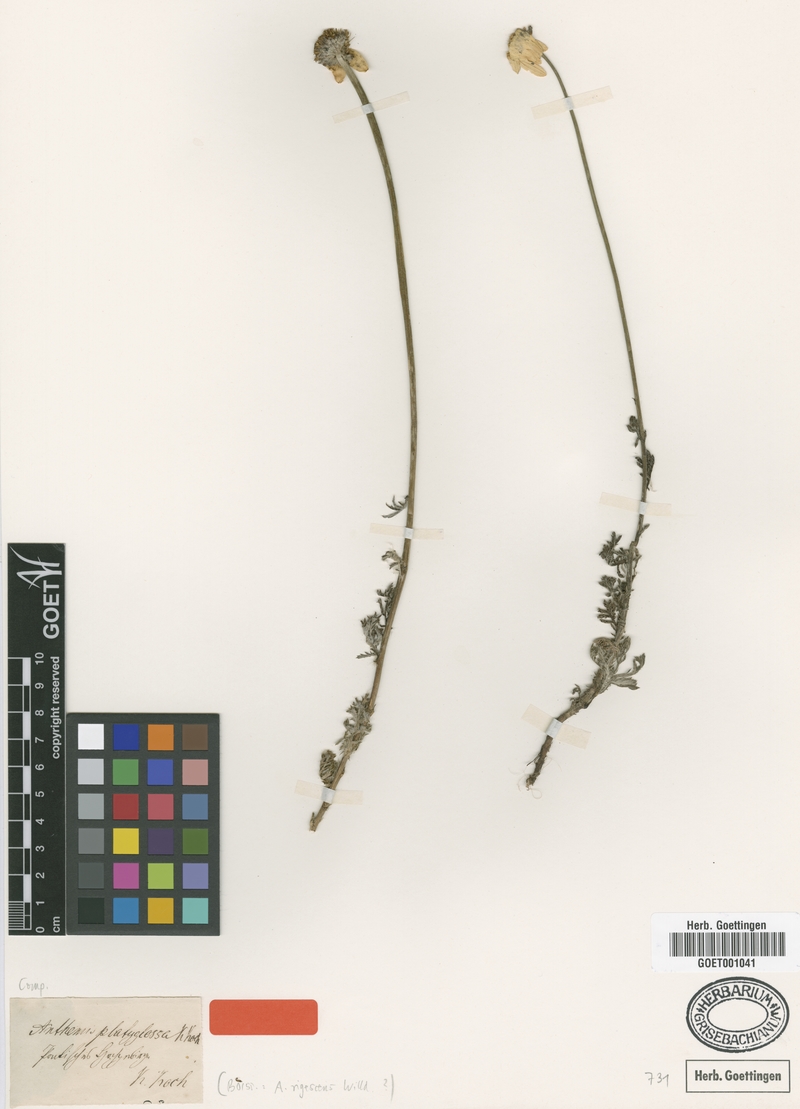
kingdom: Plantae
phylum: Tracheophyta
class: Magnoliopsida
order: Asterales
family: Asteraceae
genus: Cota
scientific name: Cota triumfetti
